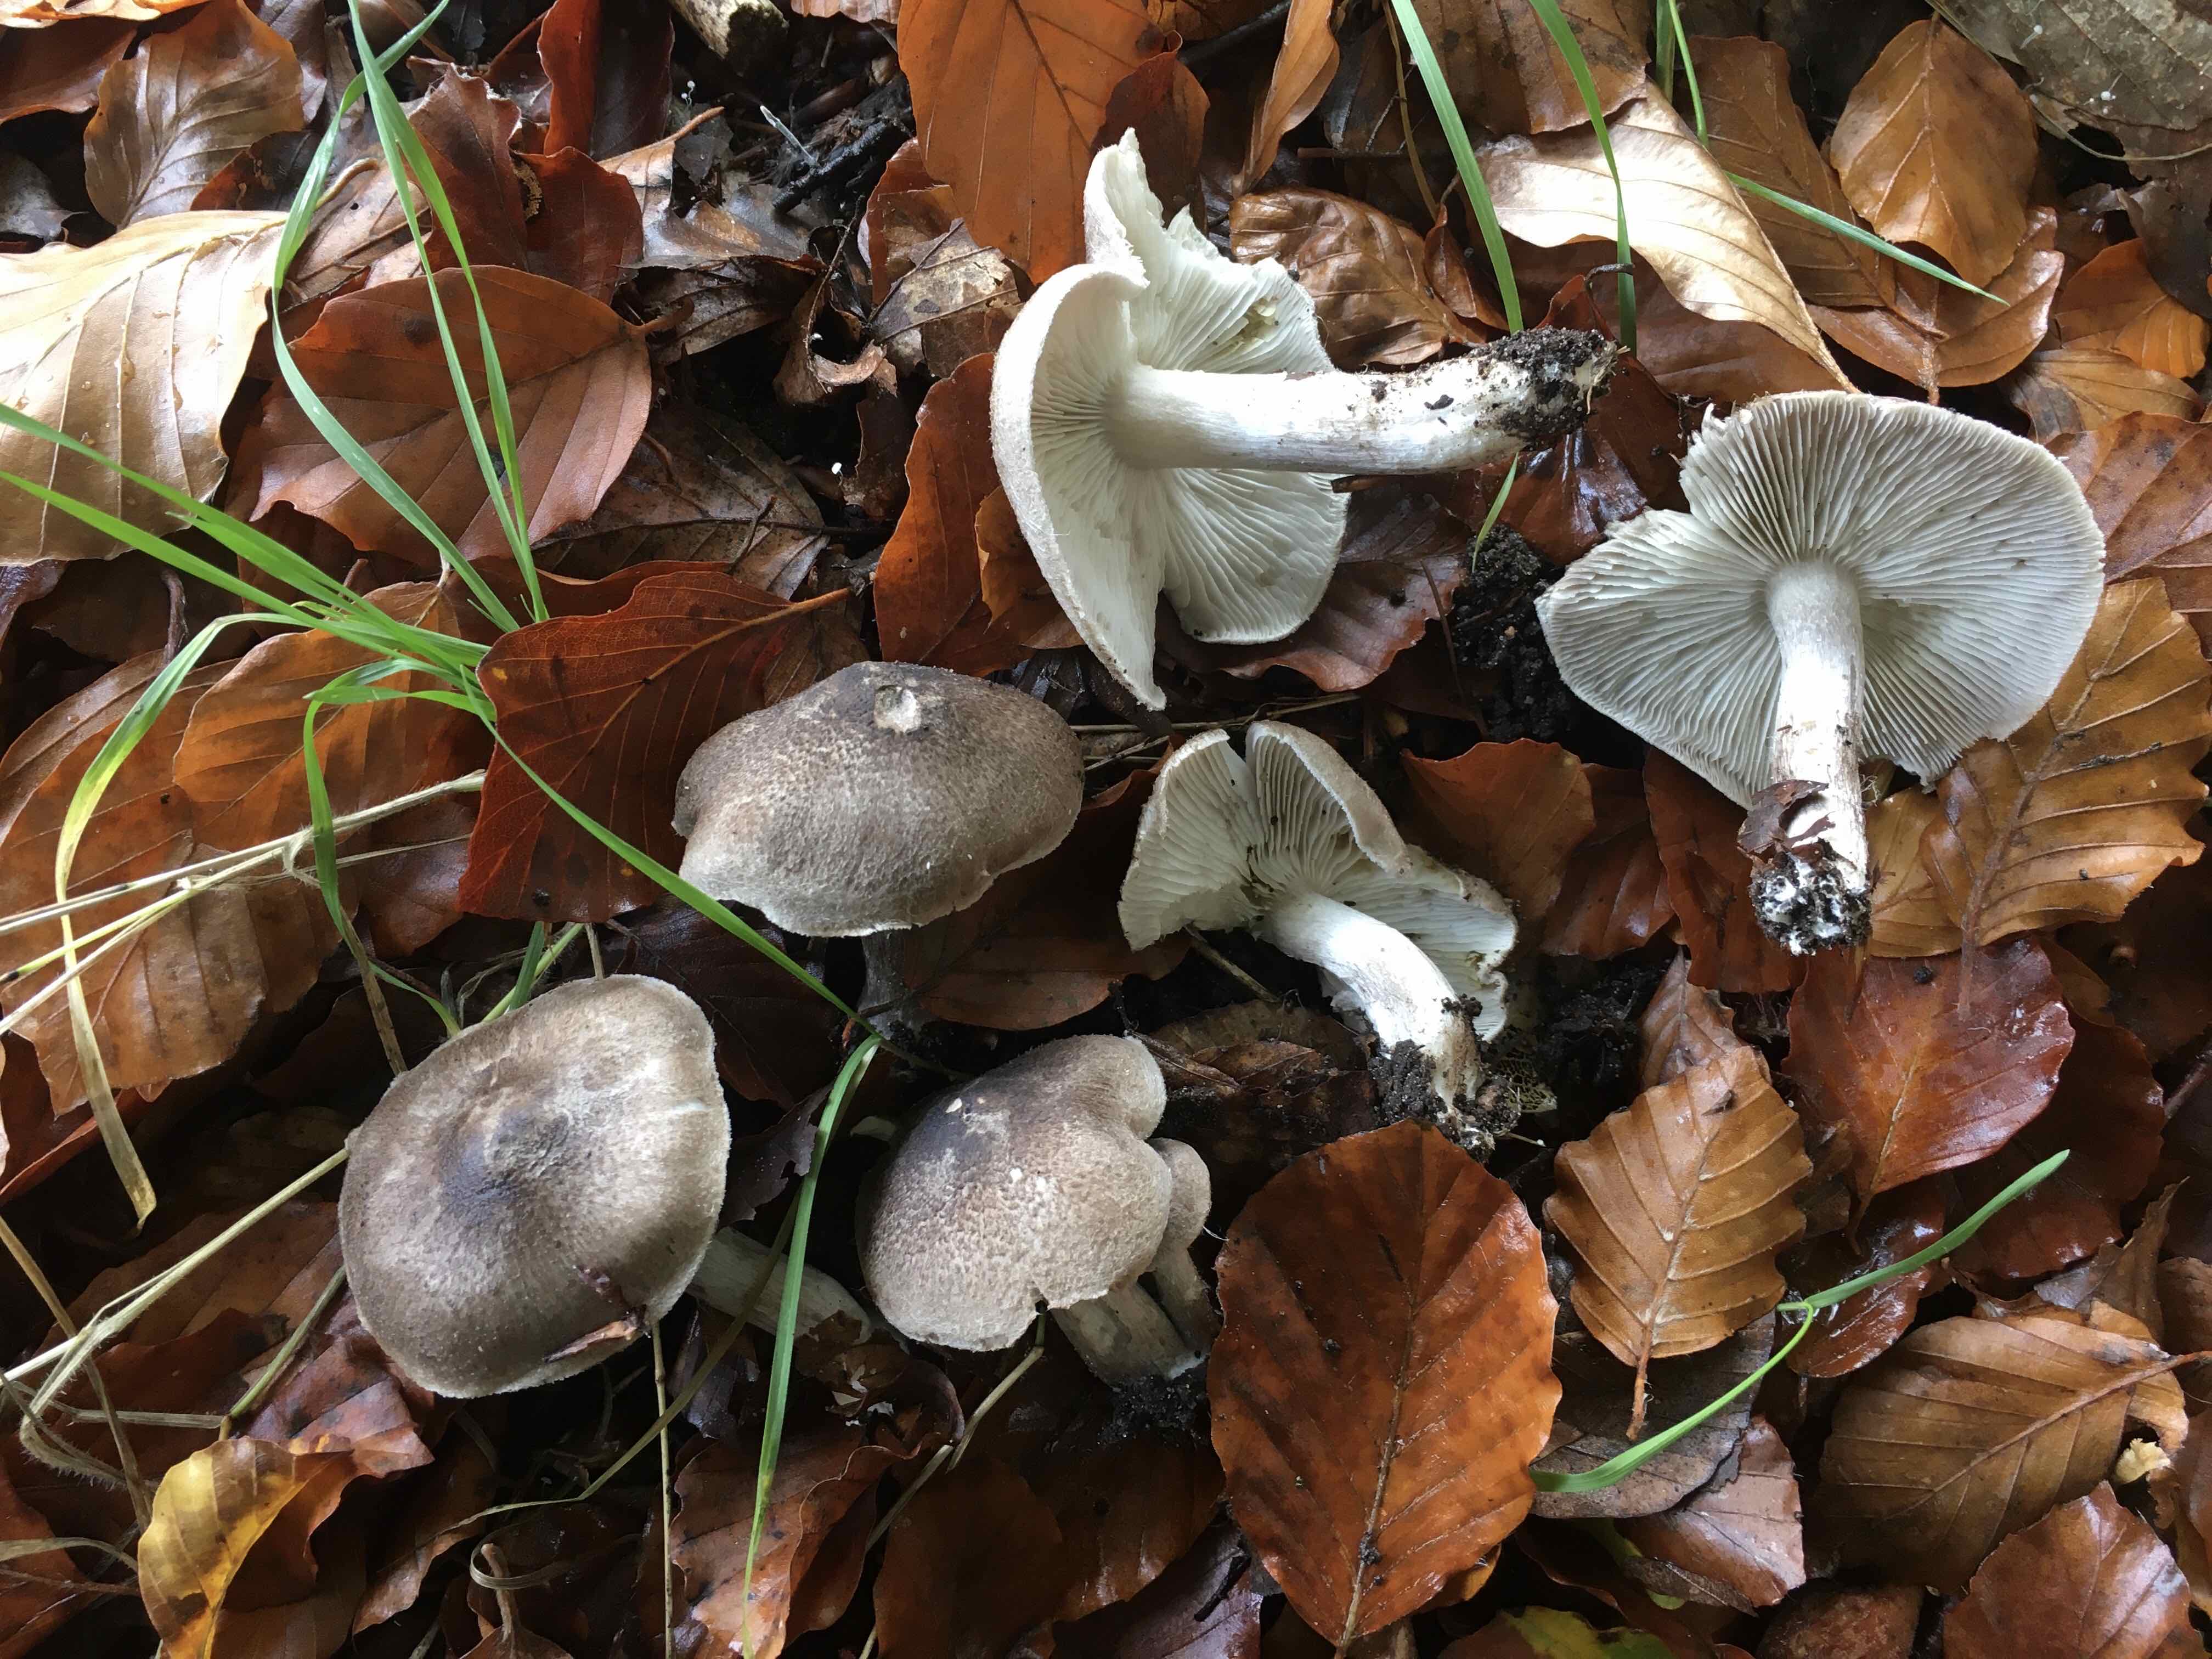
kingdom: Fungi
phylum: Basidiomycota
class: Agaricomycetes
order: Agaricales
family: Tricholomataceae
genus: Tricholoma
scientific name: Tricholoma scalpturatum
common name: gulplettet ridderhat
